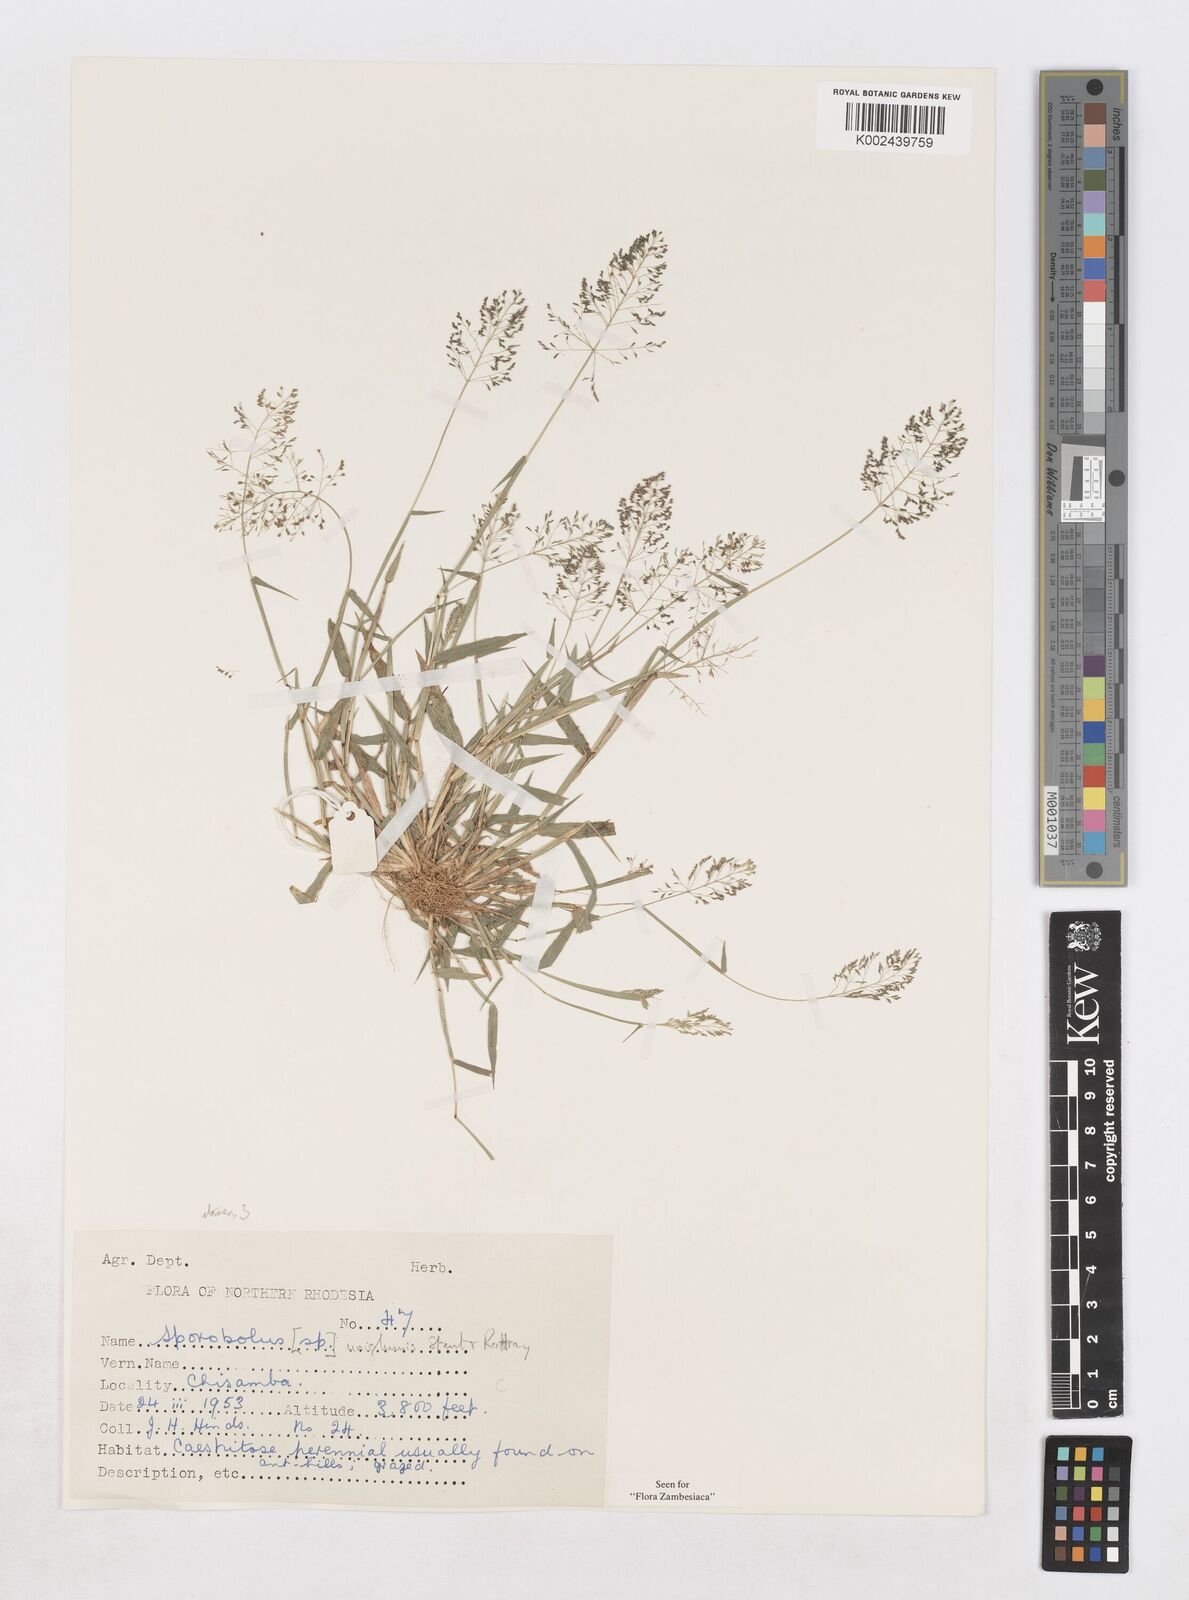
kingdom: Plantae
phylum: Tracheophyta
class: Liliopsida
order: Poales
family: Poaceae
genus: Sporobolus
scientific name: Sporobolus uniglumis
